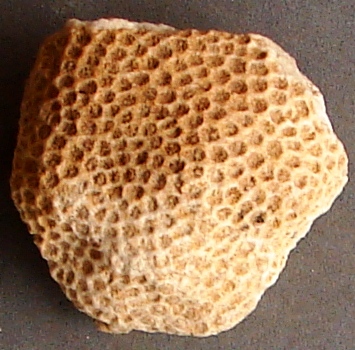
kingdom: Animalia
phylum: Cnidaria
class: Anthozoa
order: Scleractinia
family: Actinastreidae
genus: Actinastrea
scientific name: Actinastrea
